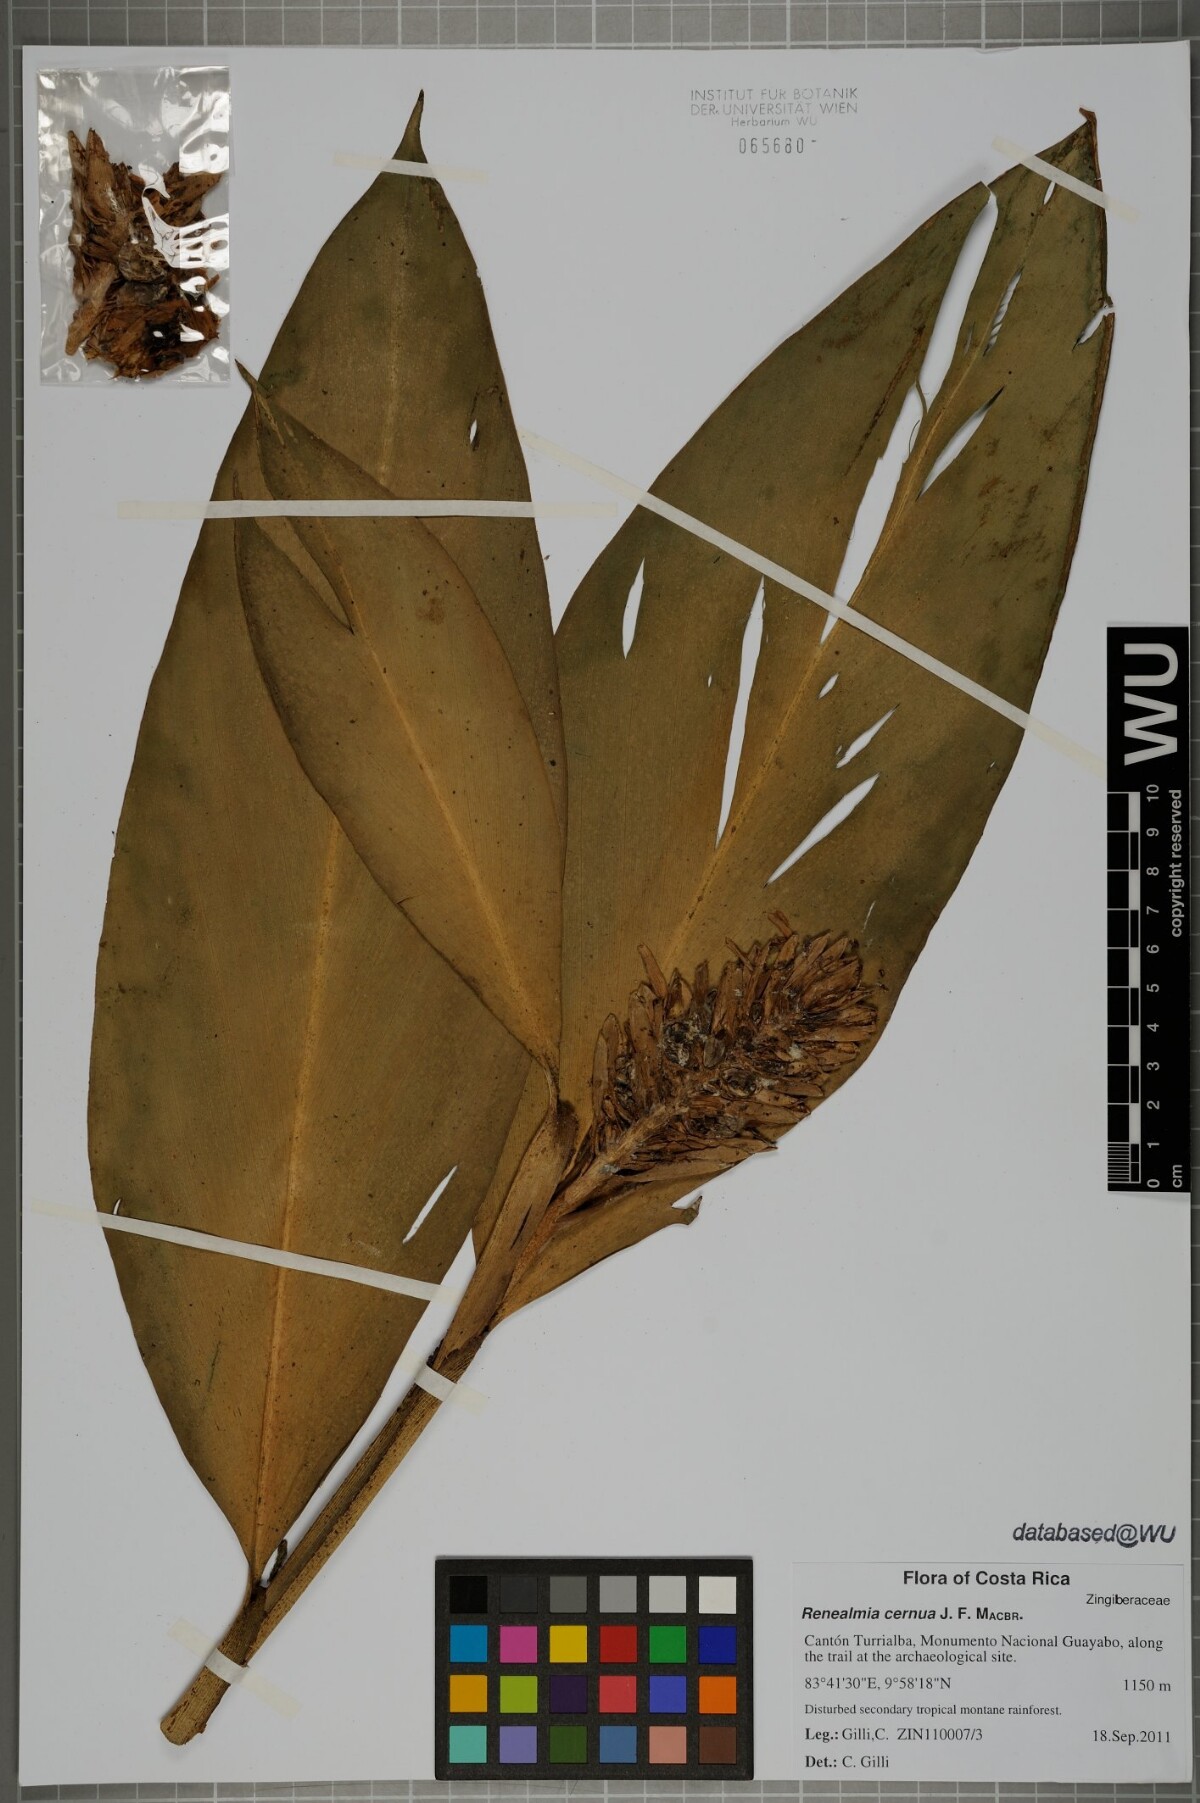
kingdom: Plantae
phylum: Tracheophyta
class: Liliopsida
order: Zingiberales
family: Zingiberaceae
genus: Renealmia
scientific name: Renealmia cernua
